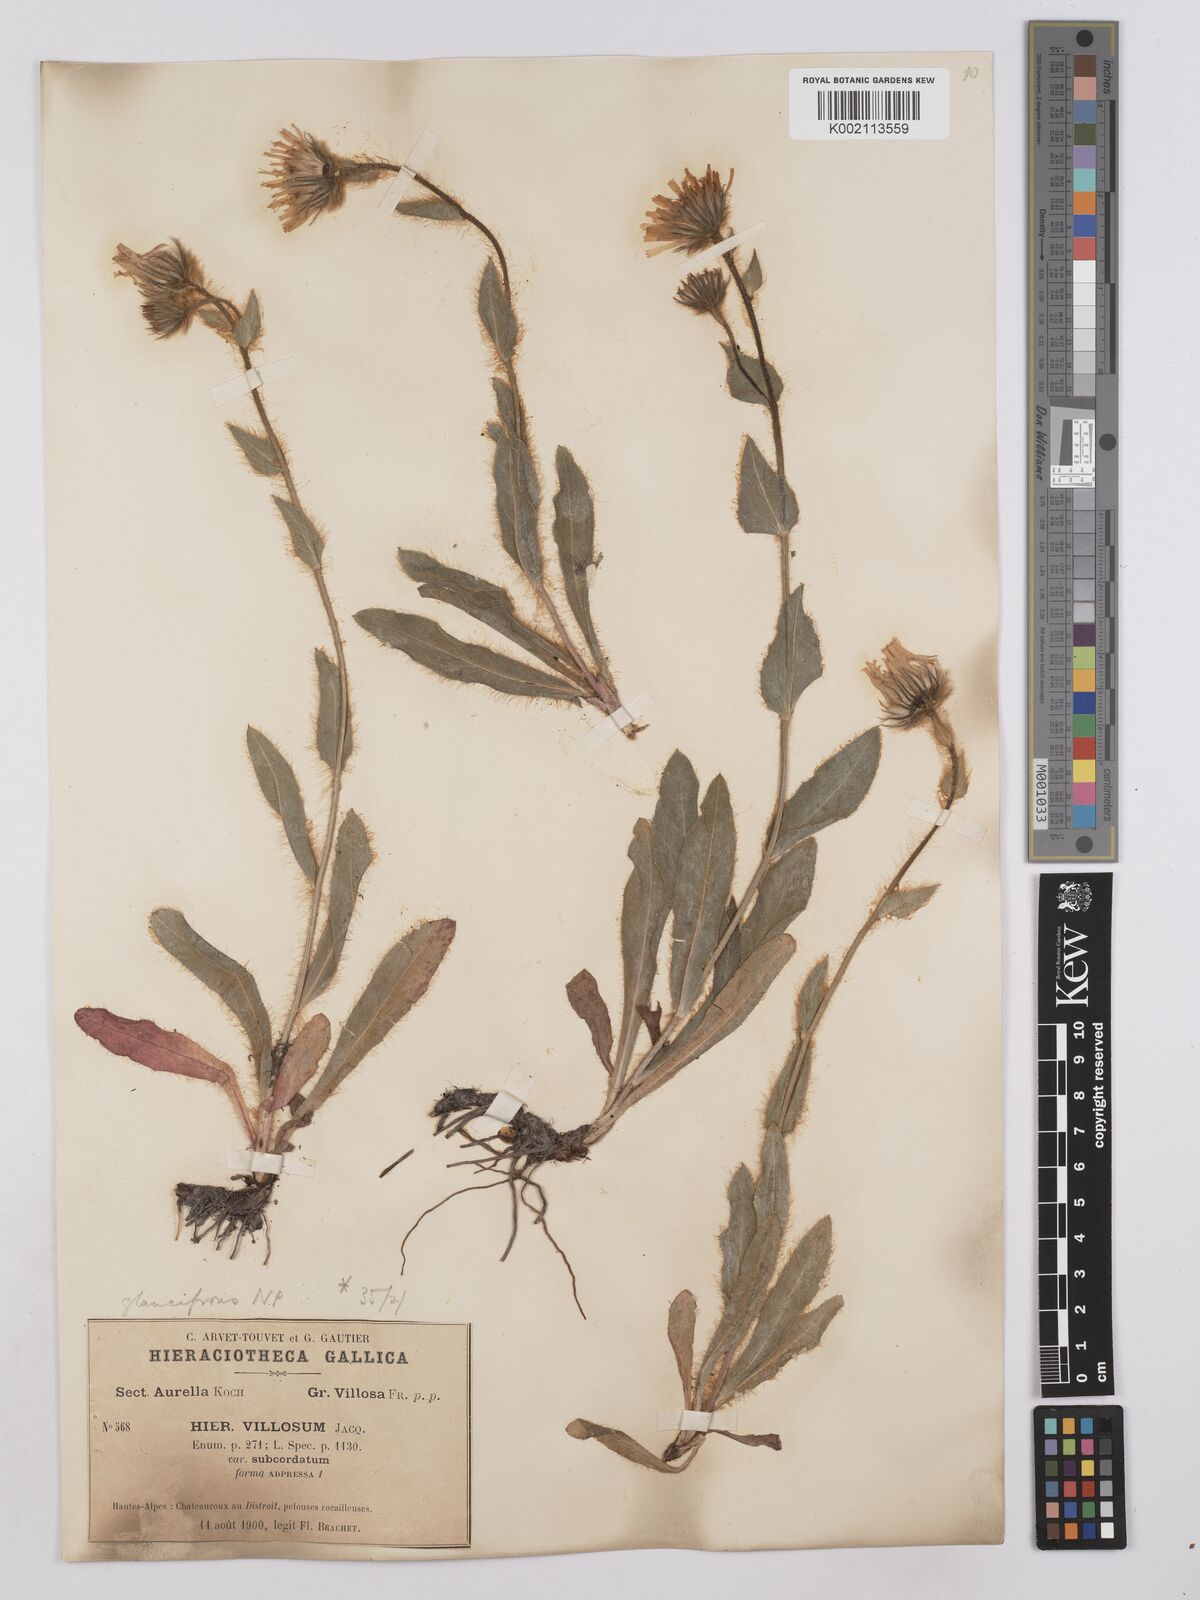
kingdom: Plantae
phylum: Tracheophyta
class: Magnoliopsida
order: Asterales
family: Asteraceae
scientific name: Asteraceae
